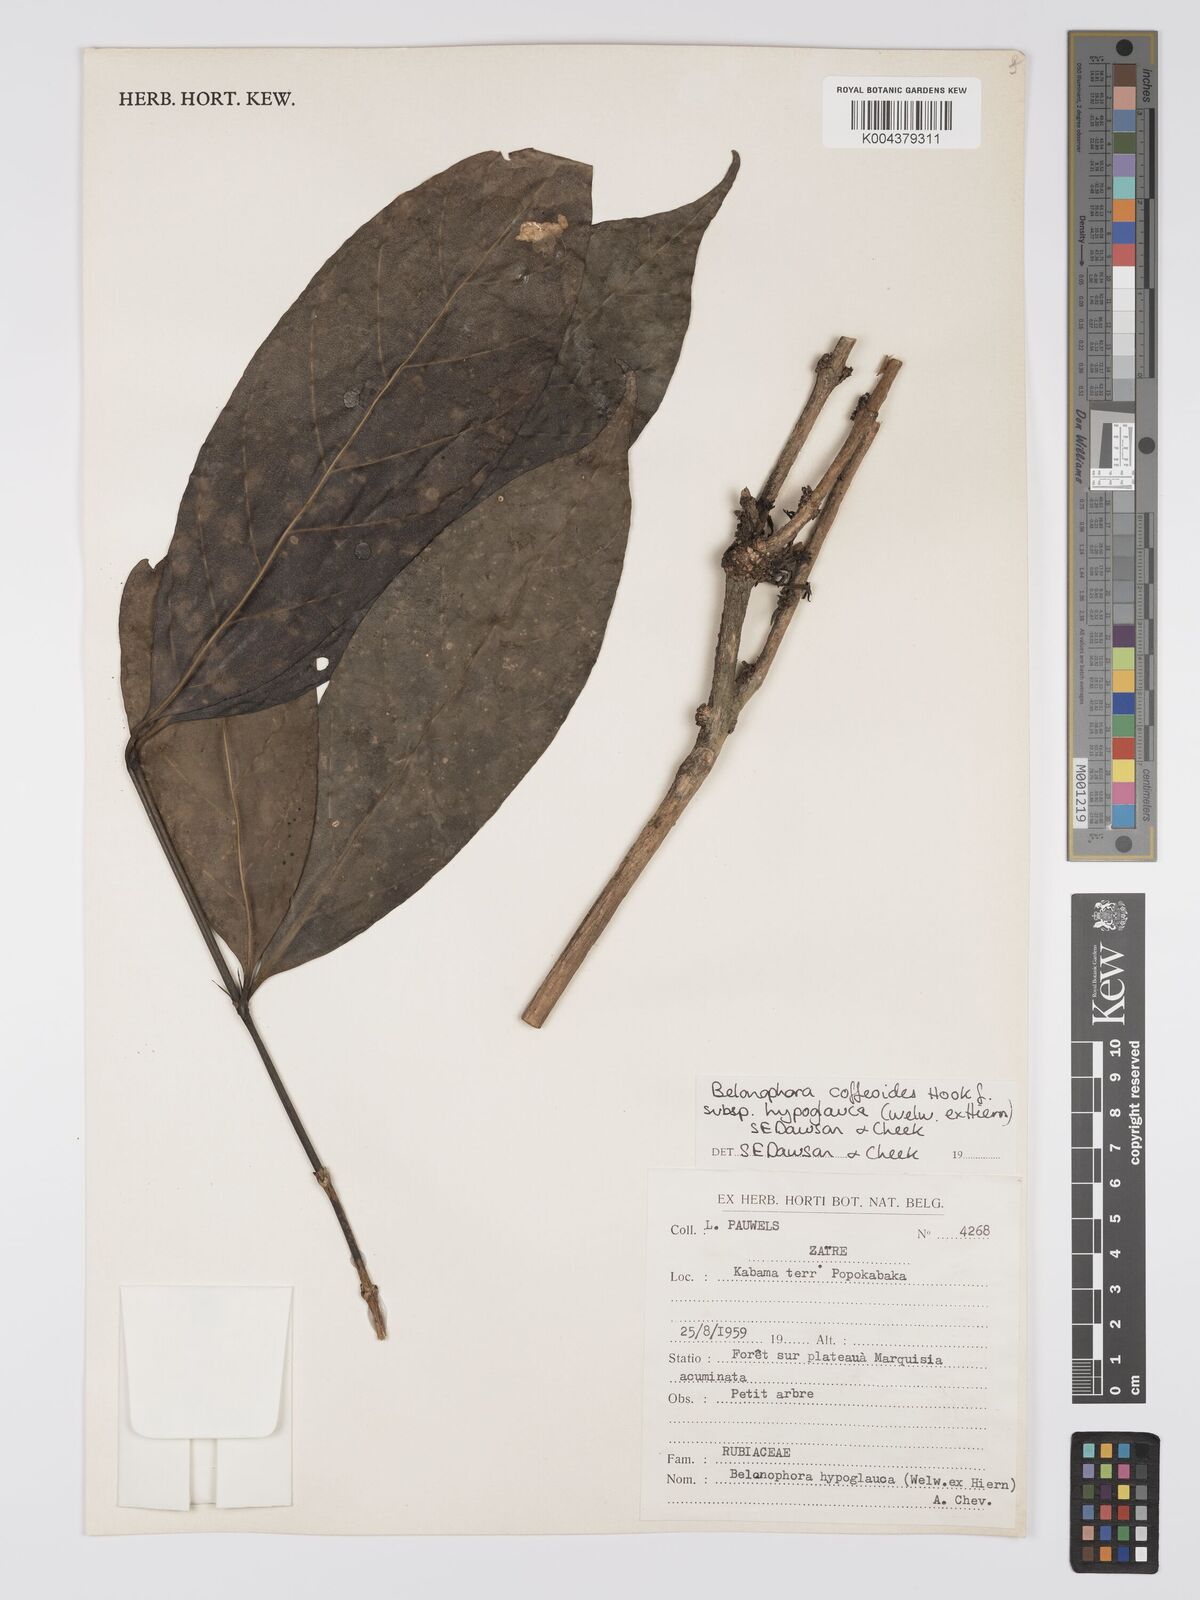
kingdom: Plantae
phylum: Tracheophyta
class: Magnoliopsida
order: Gentianales
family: Rubiaceae
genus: Belonophora
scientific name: Belonophora coffeoides
